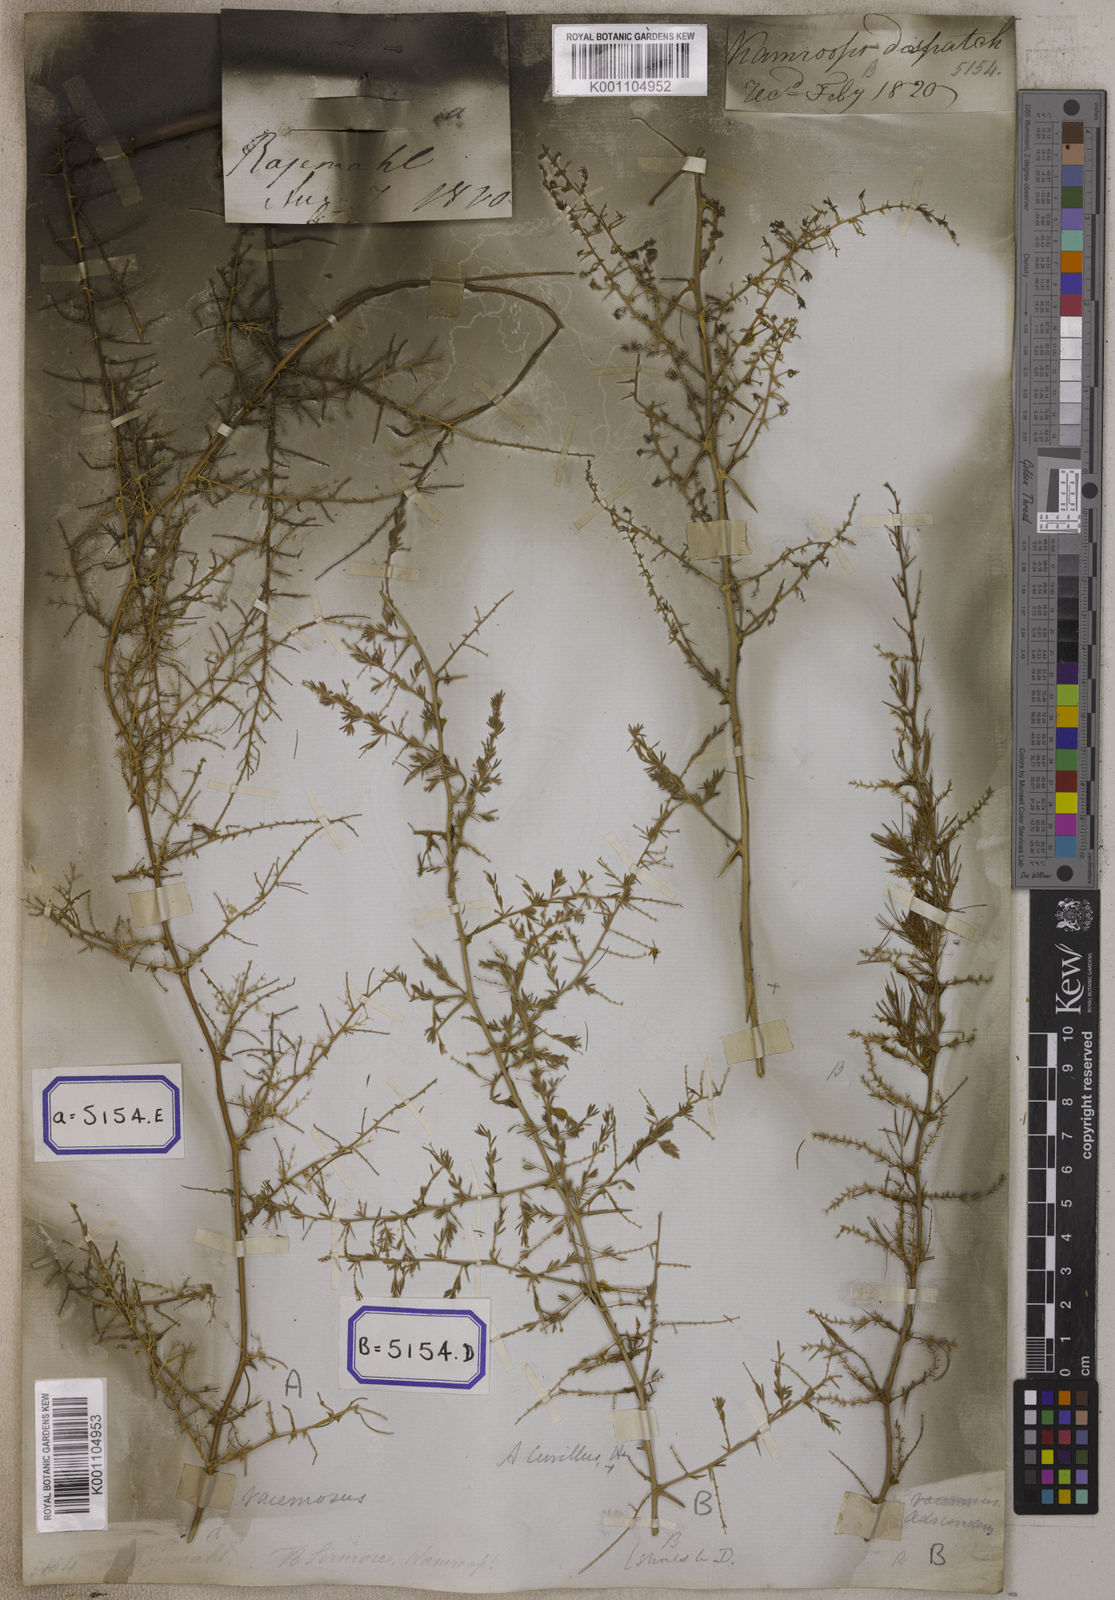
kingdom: Plantae
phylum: Tracheophyta
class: Liliopsida
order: Asparagales
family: Asparagaceae
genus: Asparagus
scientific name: Asparagus
